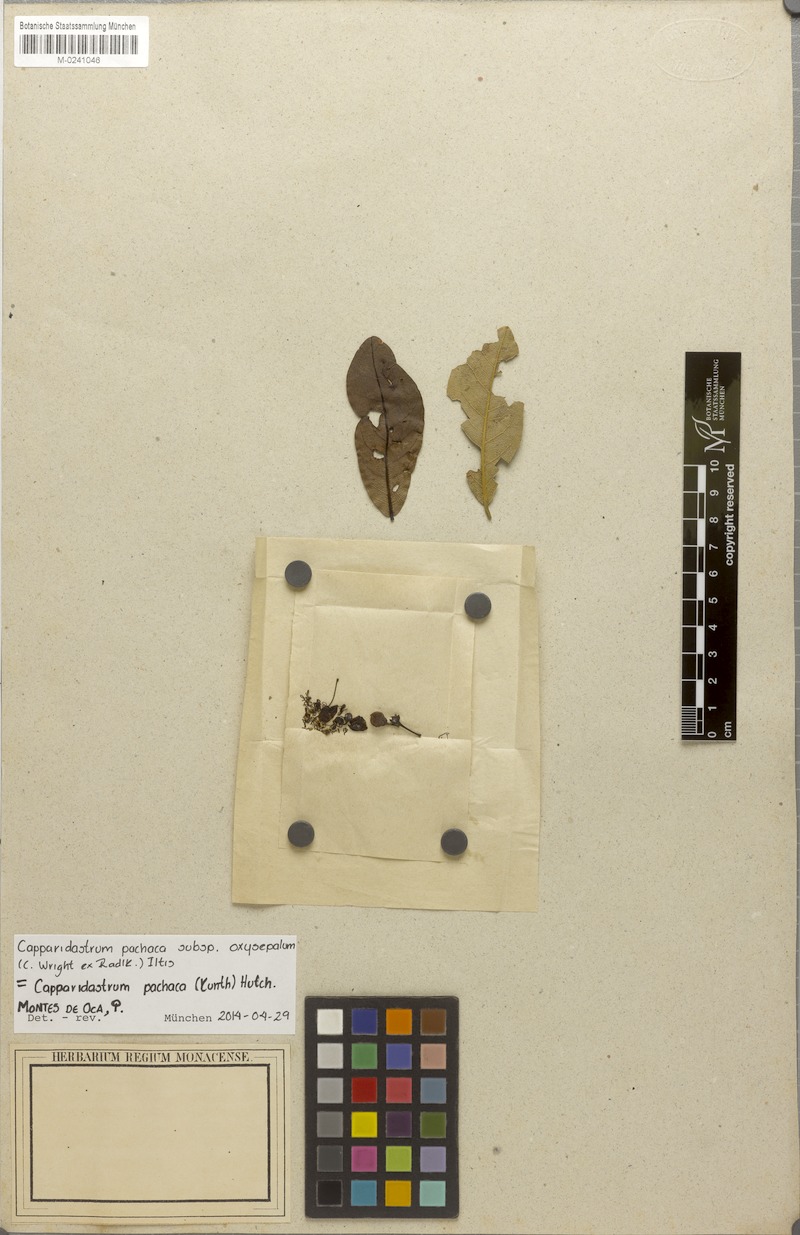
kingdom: Plantae
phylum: Tracheophyta
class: Magnoliopsida
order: Brassicales
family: Capparaceae
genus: Neocapparis
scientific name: Neocapparis pachaca
